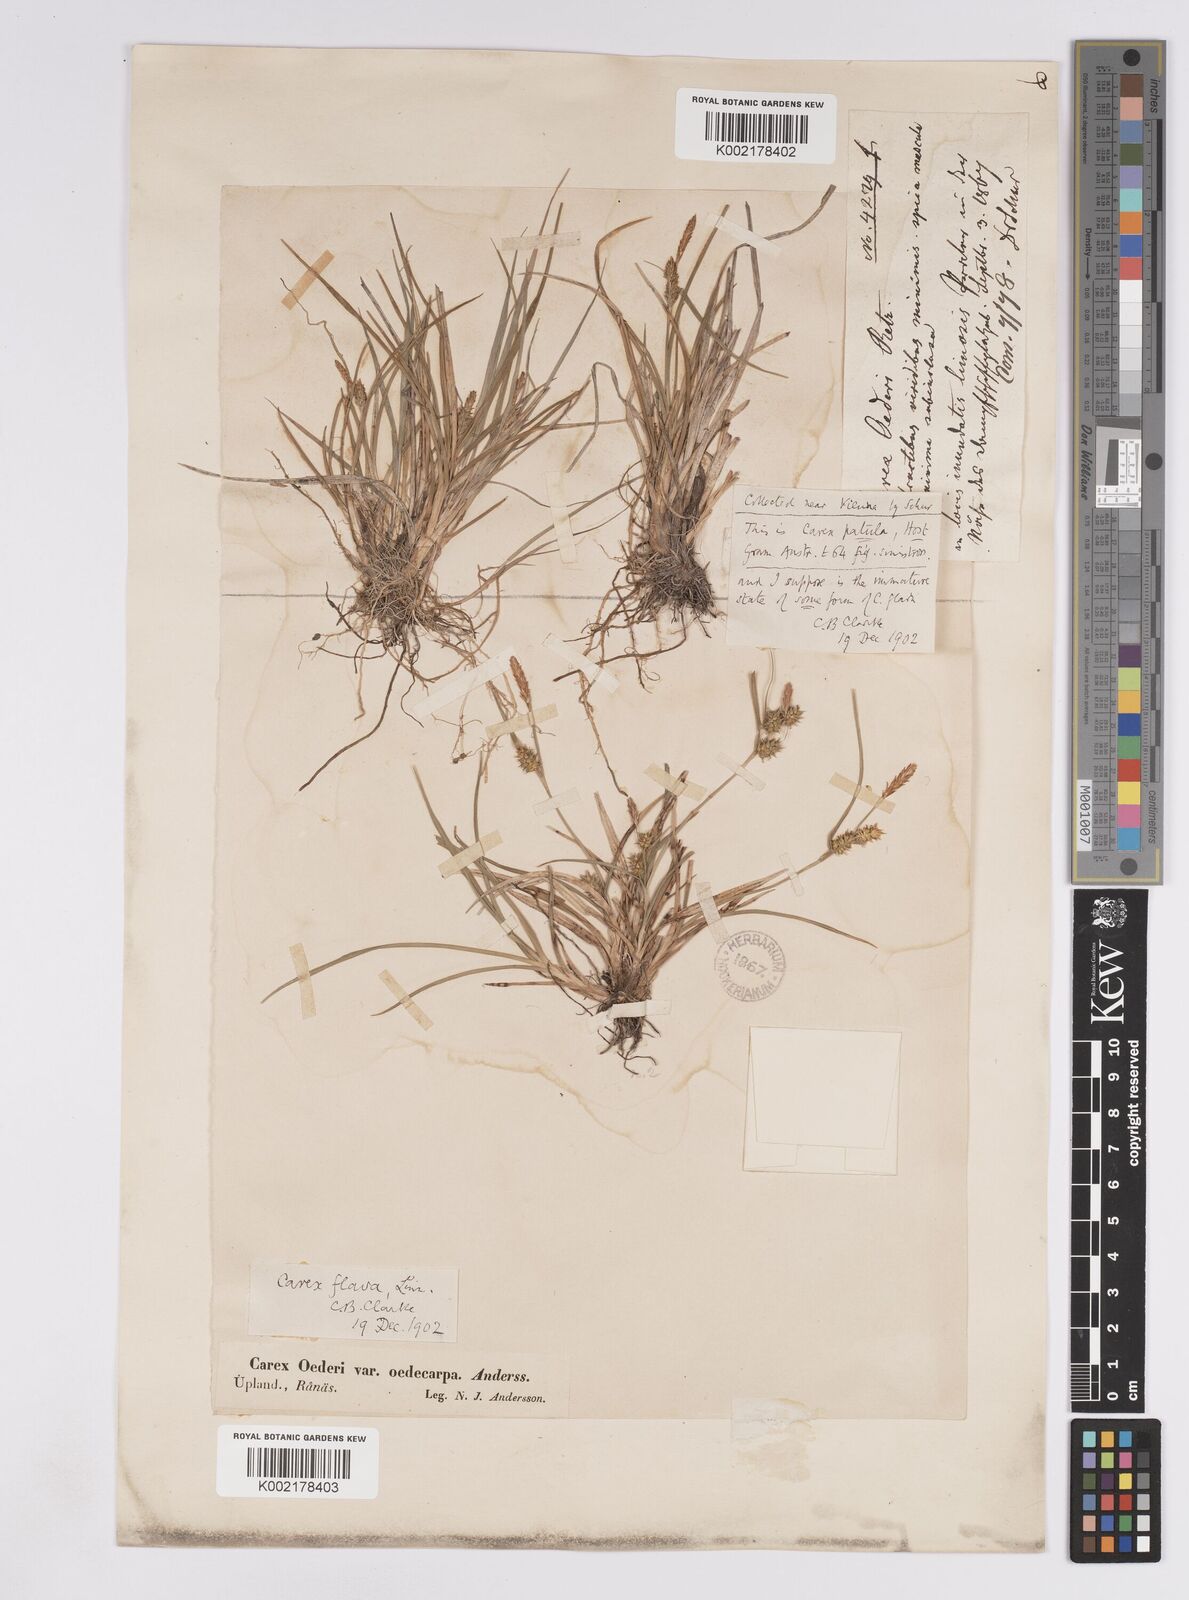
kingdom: Plantae
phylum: Tracheophyta
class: Liliopsida
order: Poales
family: Cyperaceae
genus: Carex
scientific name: Carex demissa
